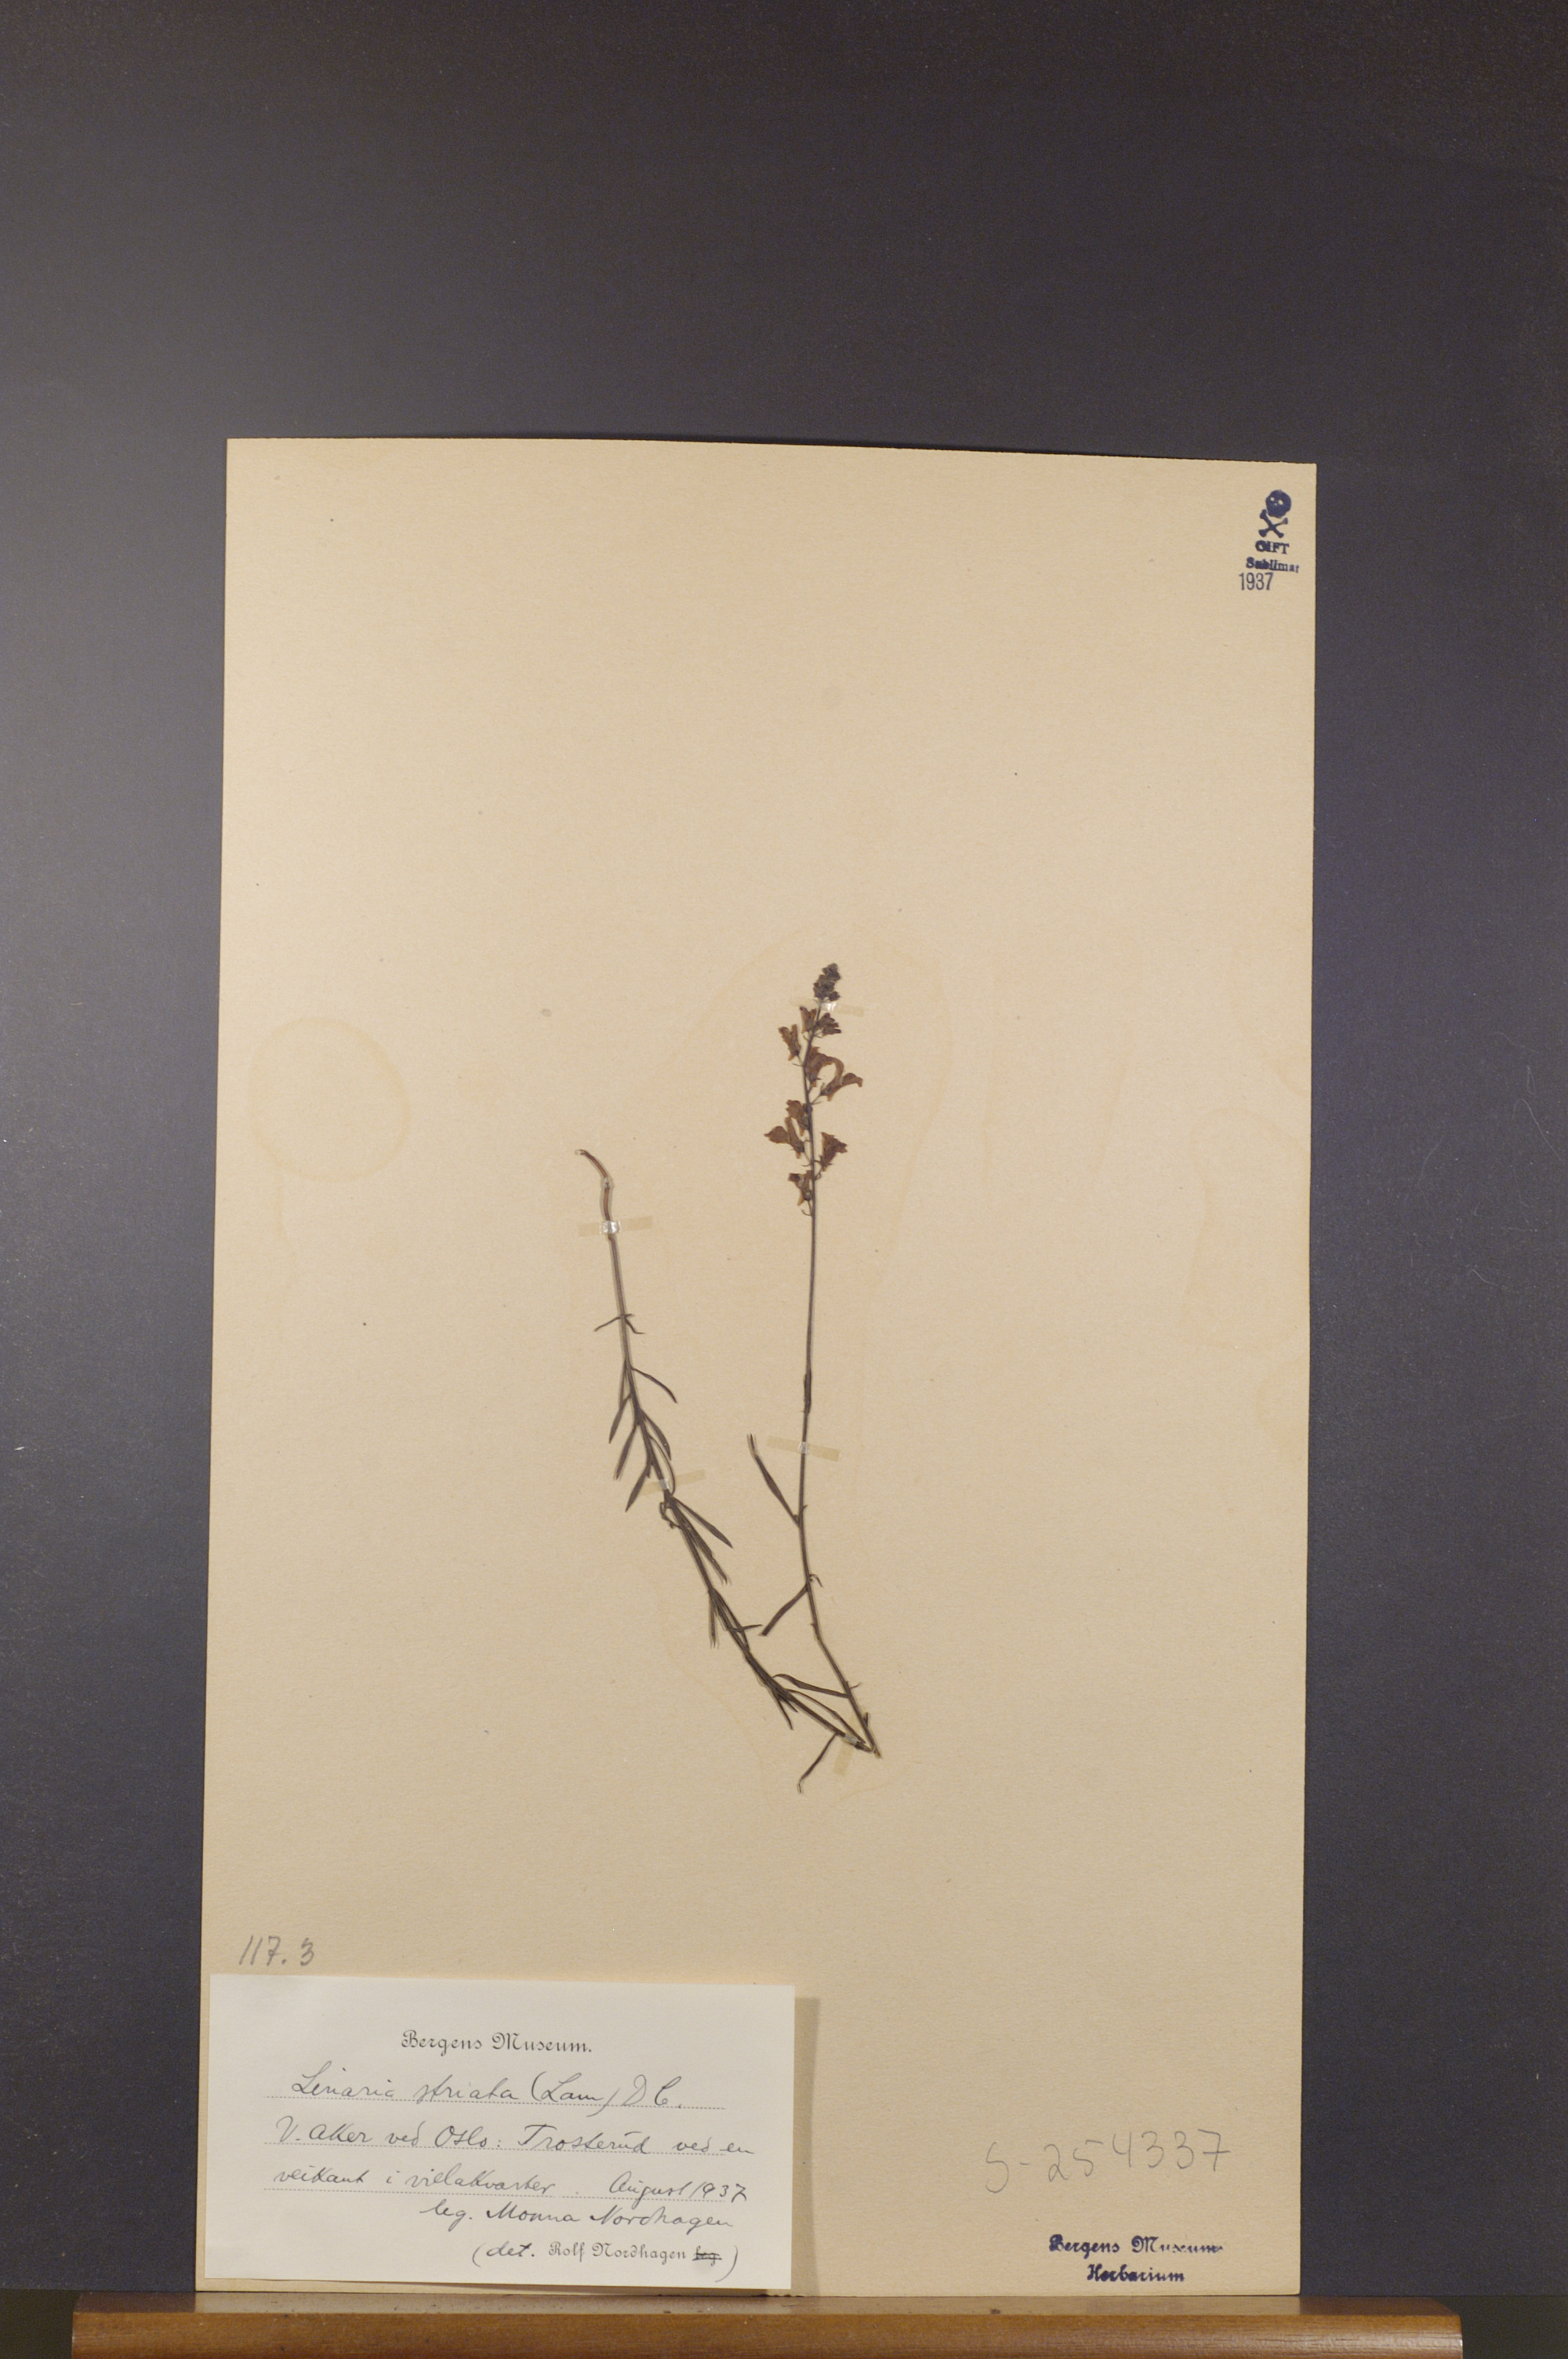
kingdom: Plantae
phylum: Tracheophyta
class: Magnoliopsida
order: Lamiales
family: Plantaginaceae
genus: Linaria
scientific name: Linaria repens
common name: Pale toadflax
